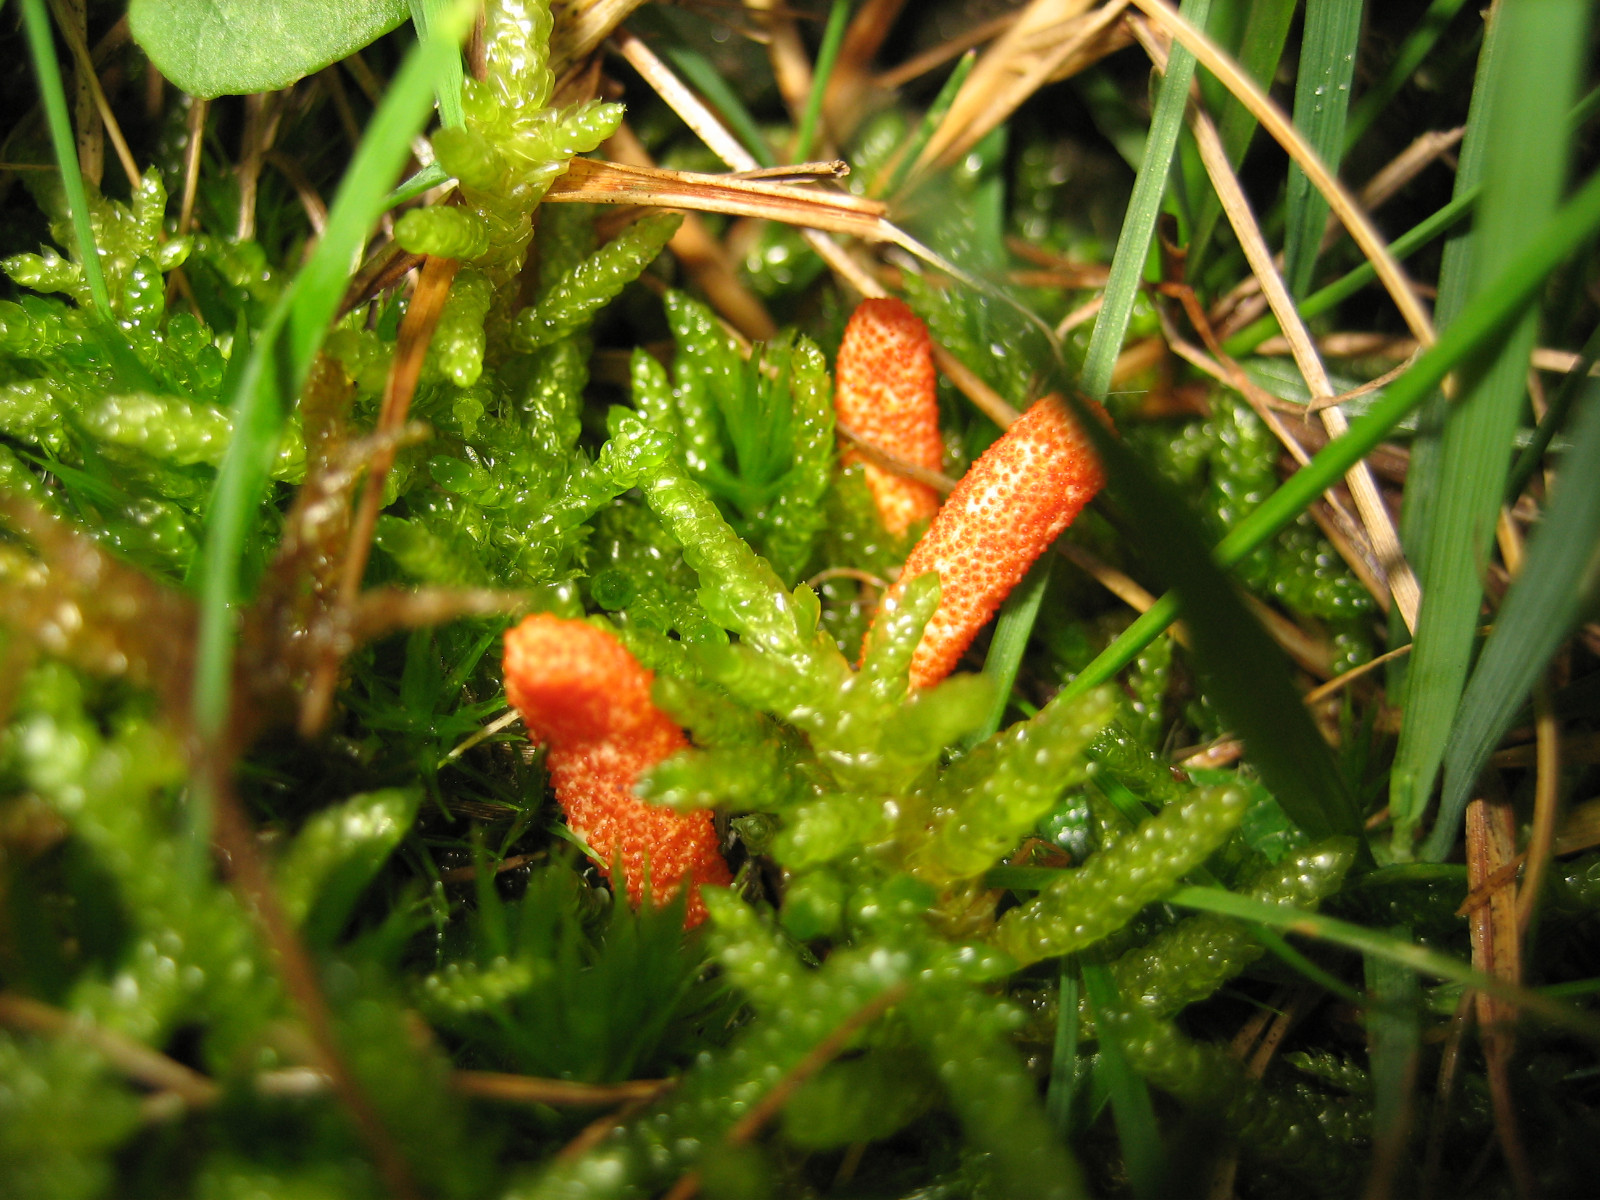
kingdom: Fungi
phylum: Ascomycota
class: Sordariomycetes
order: Hypocreales
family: Cordycipitaceae
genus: Cordyceps
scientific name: Cordyceps militaris
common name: puppe-snyltekølle
